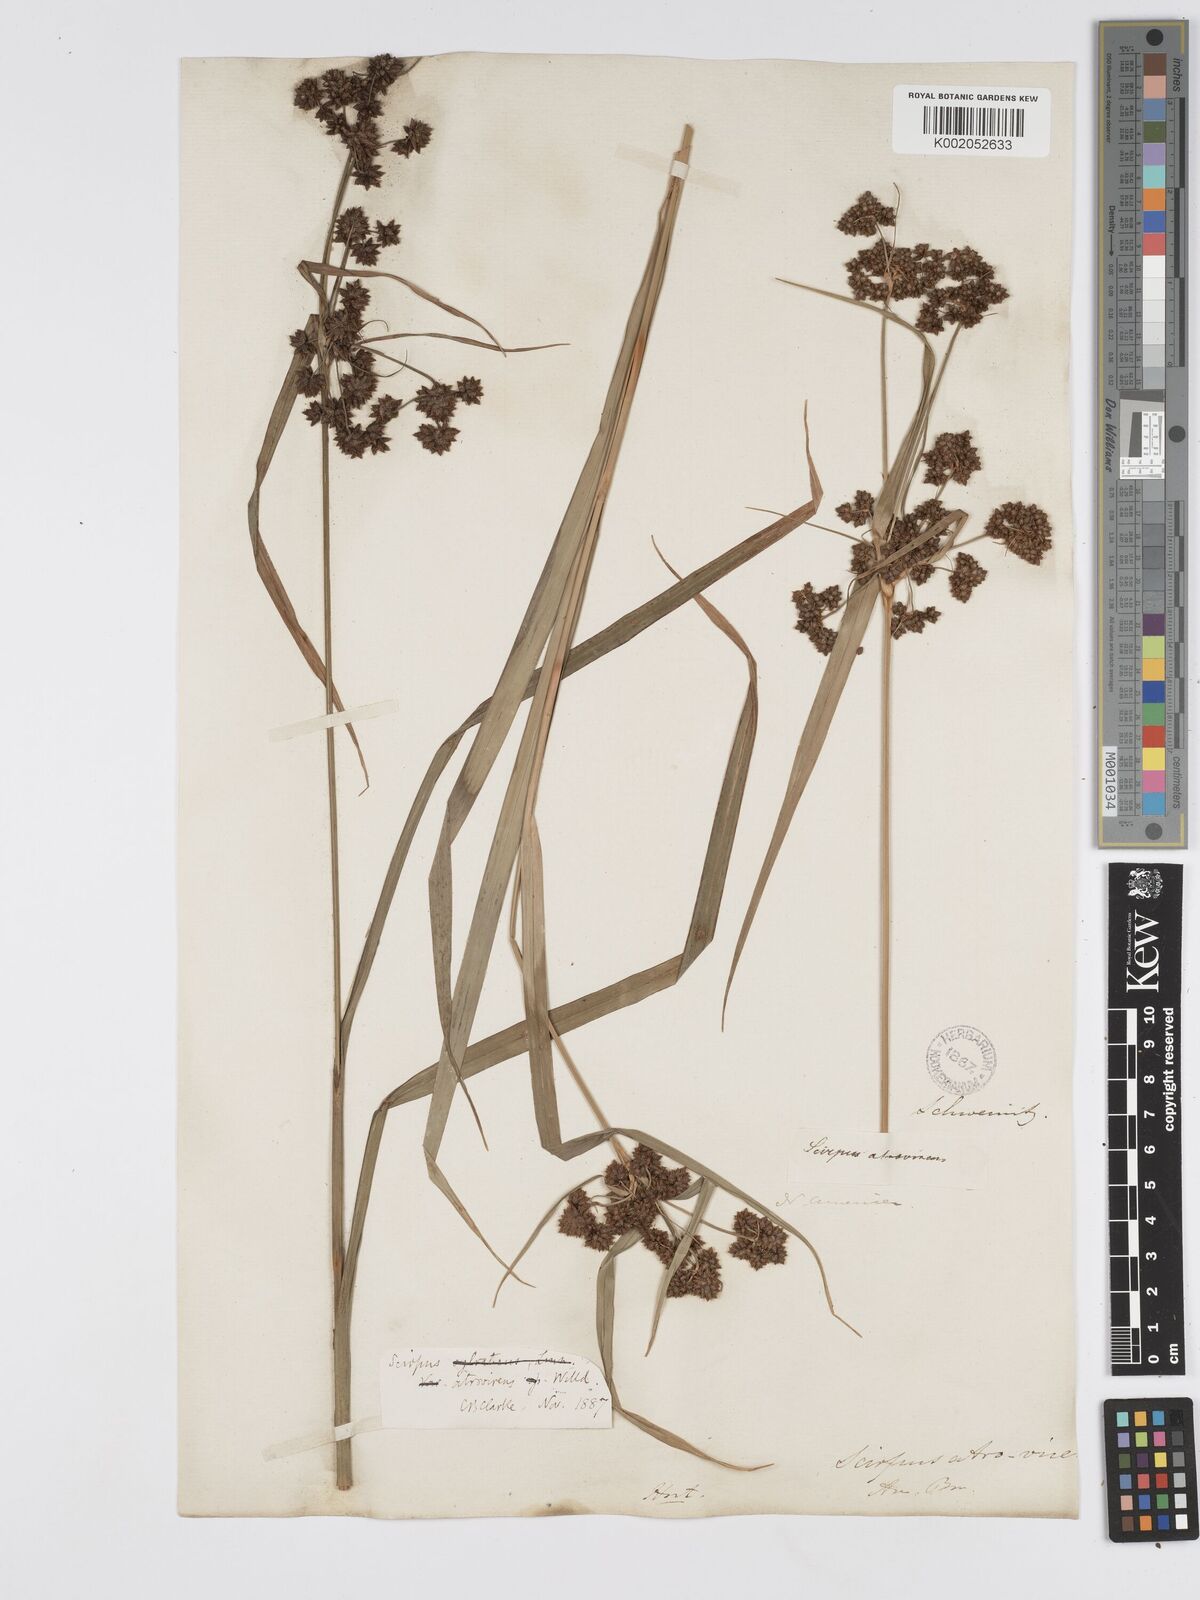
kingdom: Plantae
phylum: Tracheophyta
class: Liliopsida
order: Poales
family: Cyperaceae
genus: Scirpus
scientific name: Scirpus atrovirens
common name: Black bulrush
